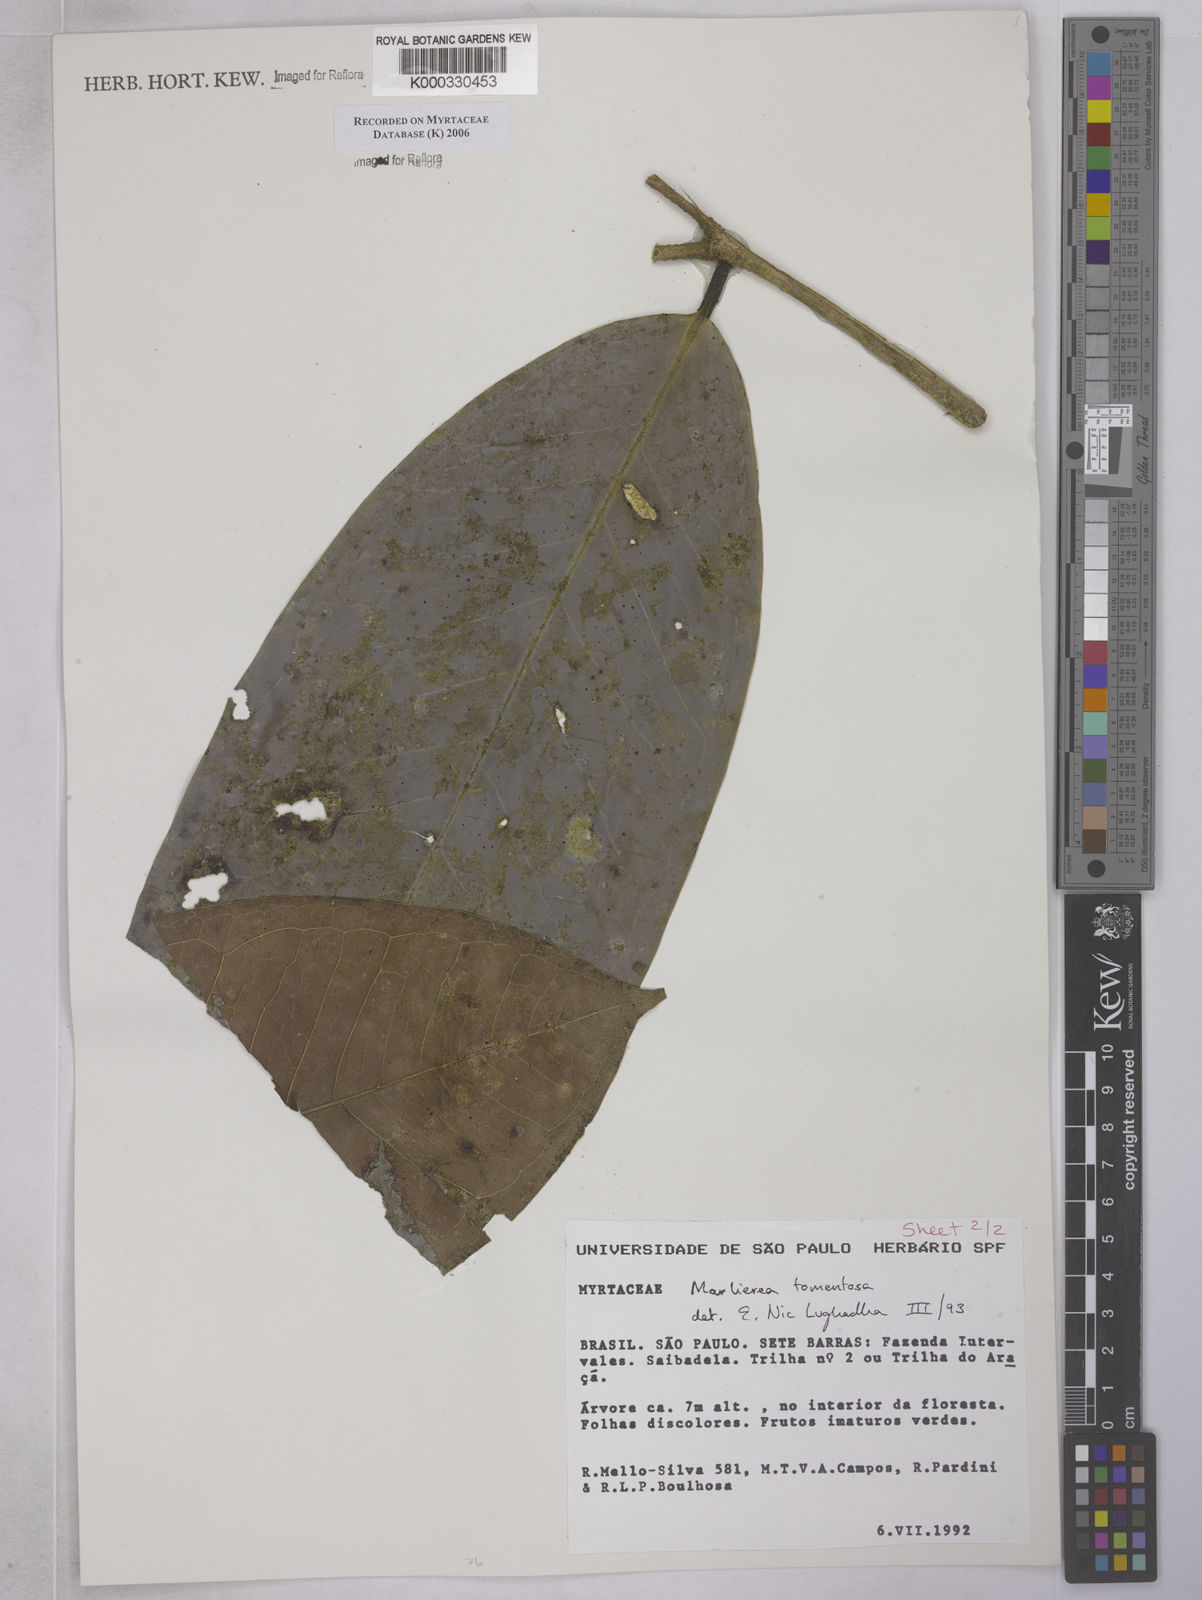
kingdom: Plantae
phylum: Tracheophyta
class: Magnoliopsida
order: Myrtales
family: Myrtaceae
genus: Myrcia
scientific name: Myrcia neotomentosa
